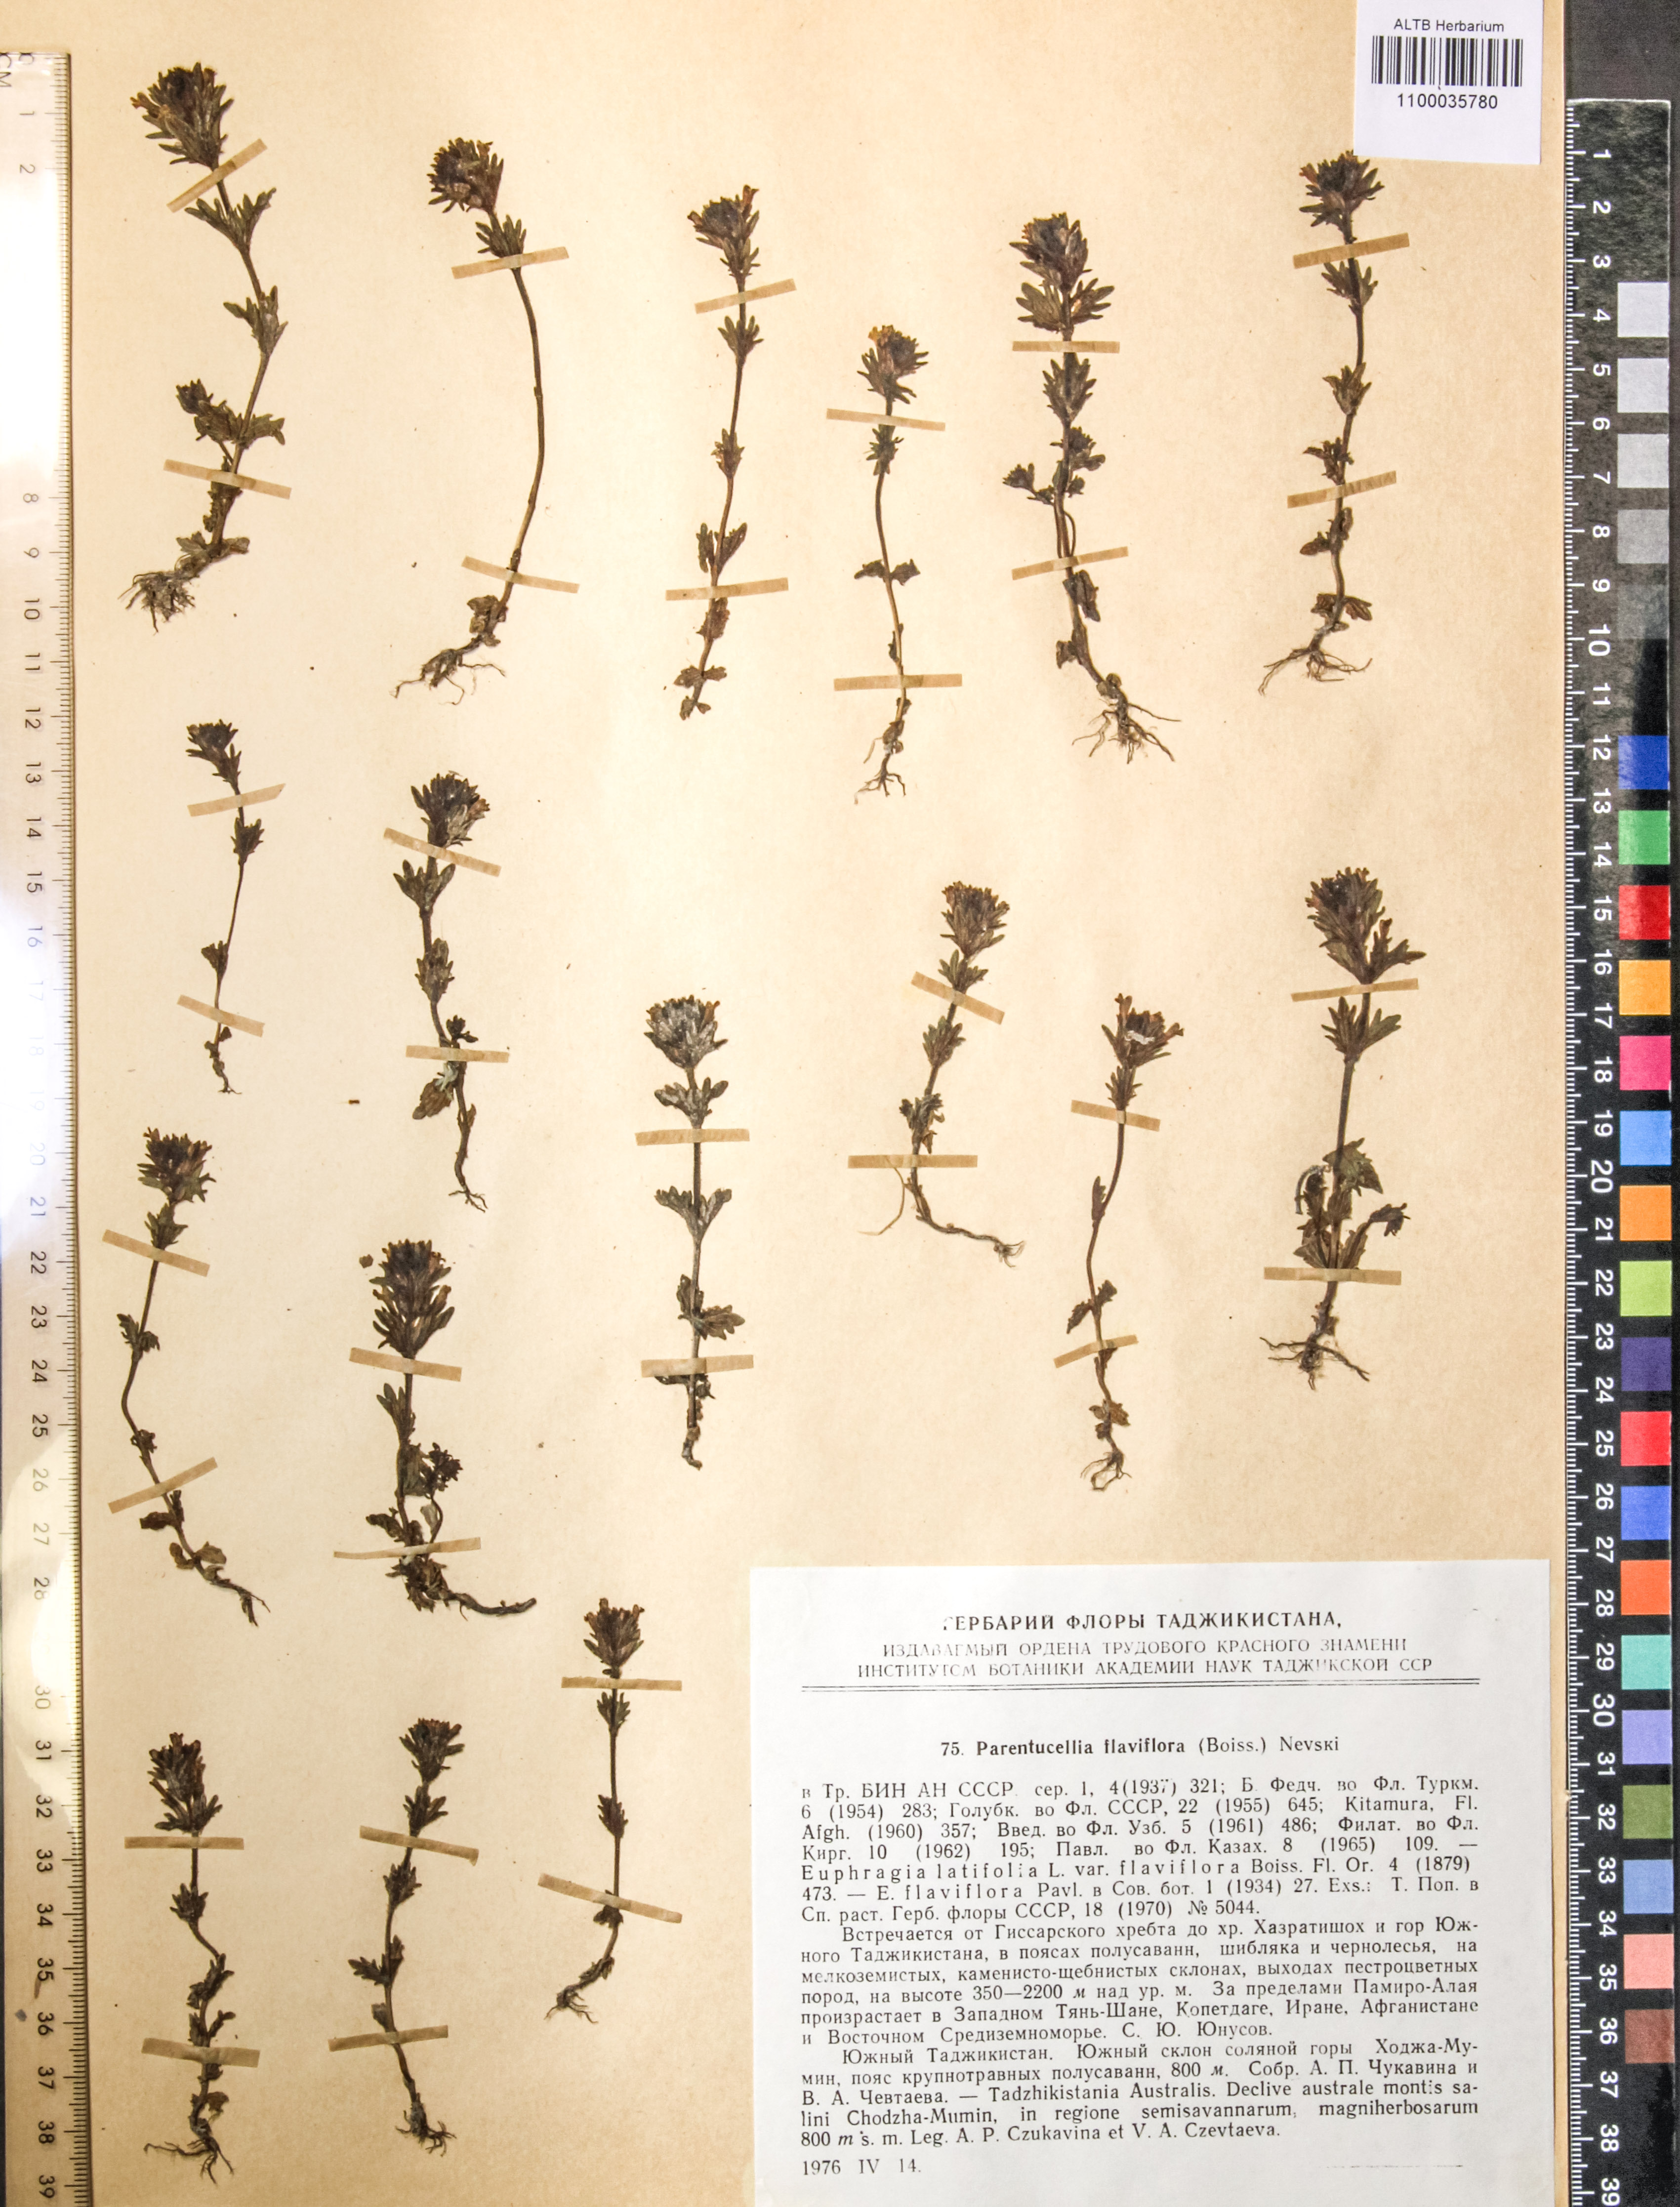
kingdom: Plantae
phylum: Tracheophyta
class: Magnoliopsida
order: Lamiales
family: Orobanchaceae
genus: Parentucellia
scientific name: Parentucellia flaviflora
